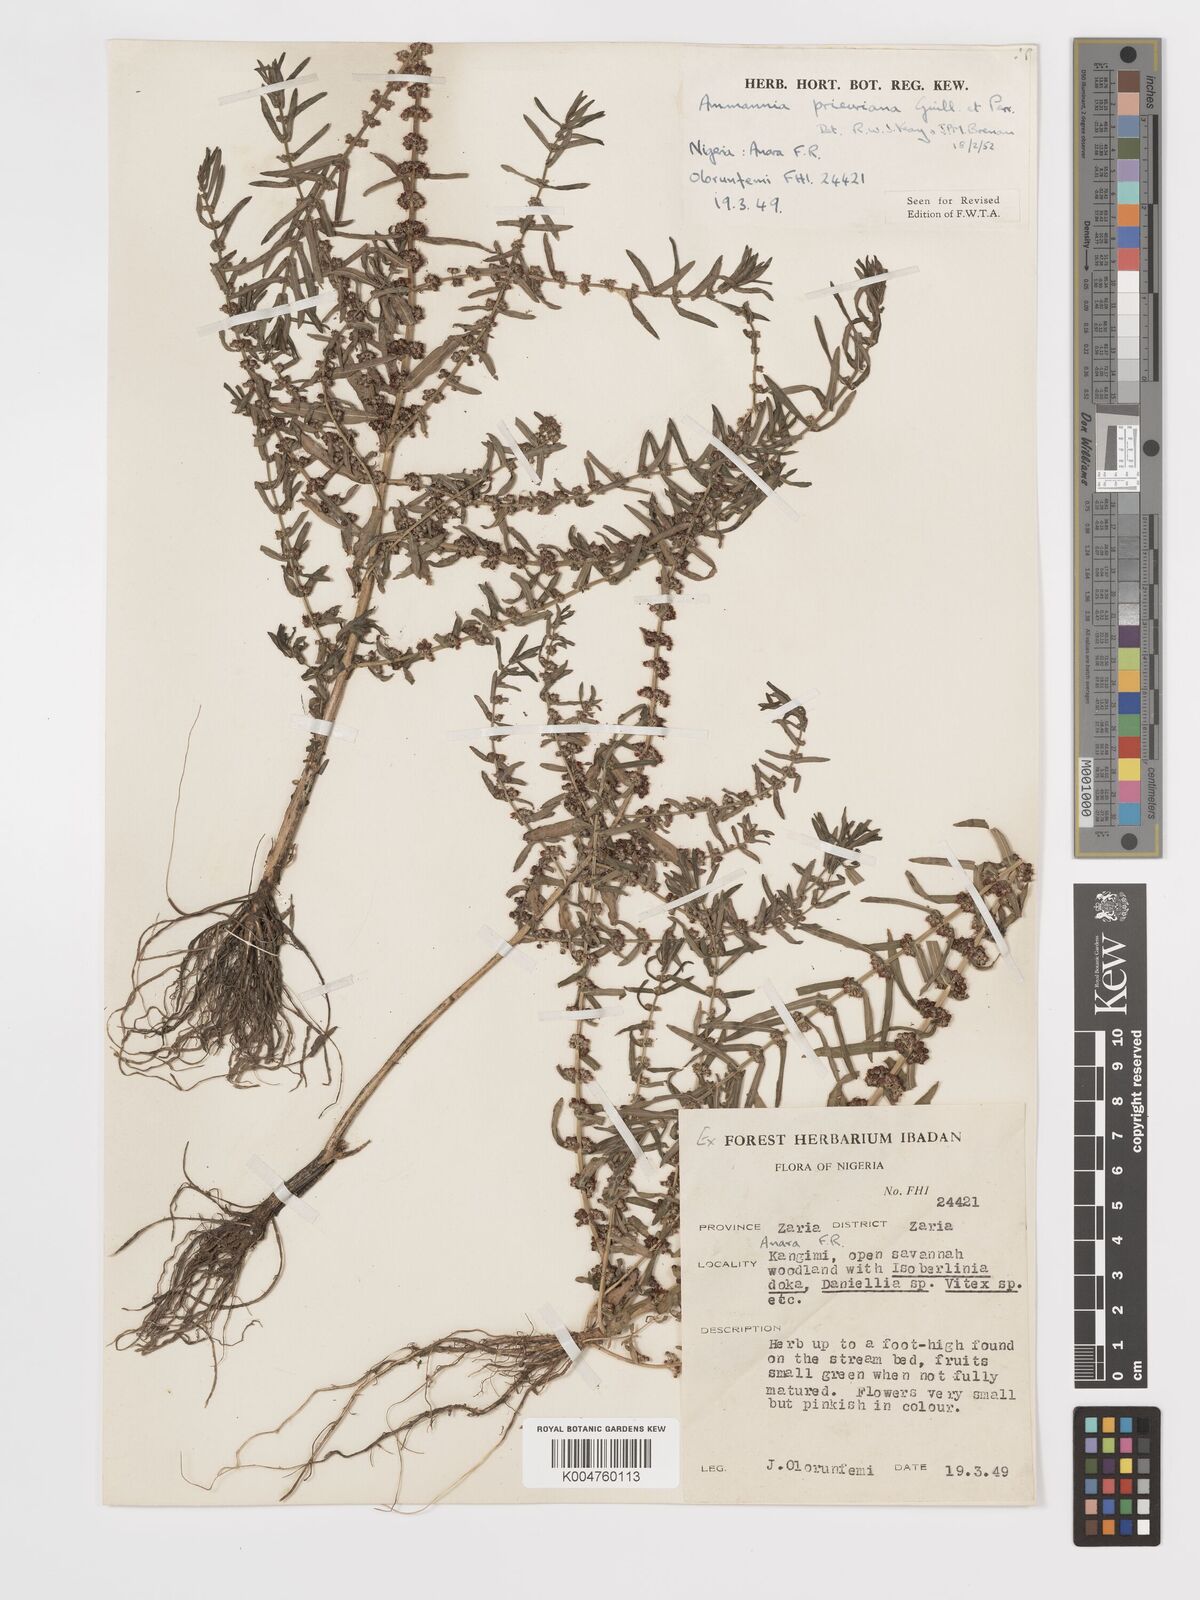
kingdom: Plantae
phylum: Tracheophyta
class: Magnoliopsida
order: Myrtales
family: Lythraceae
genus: Ammannia
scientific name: Ammannia prieuriana
